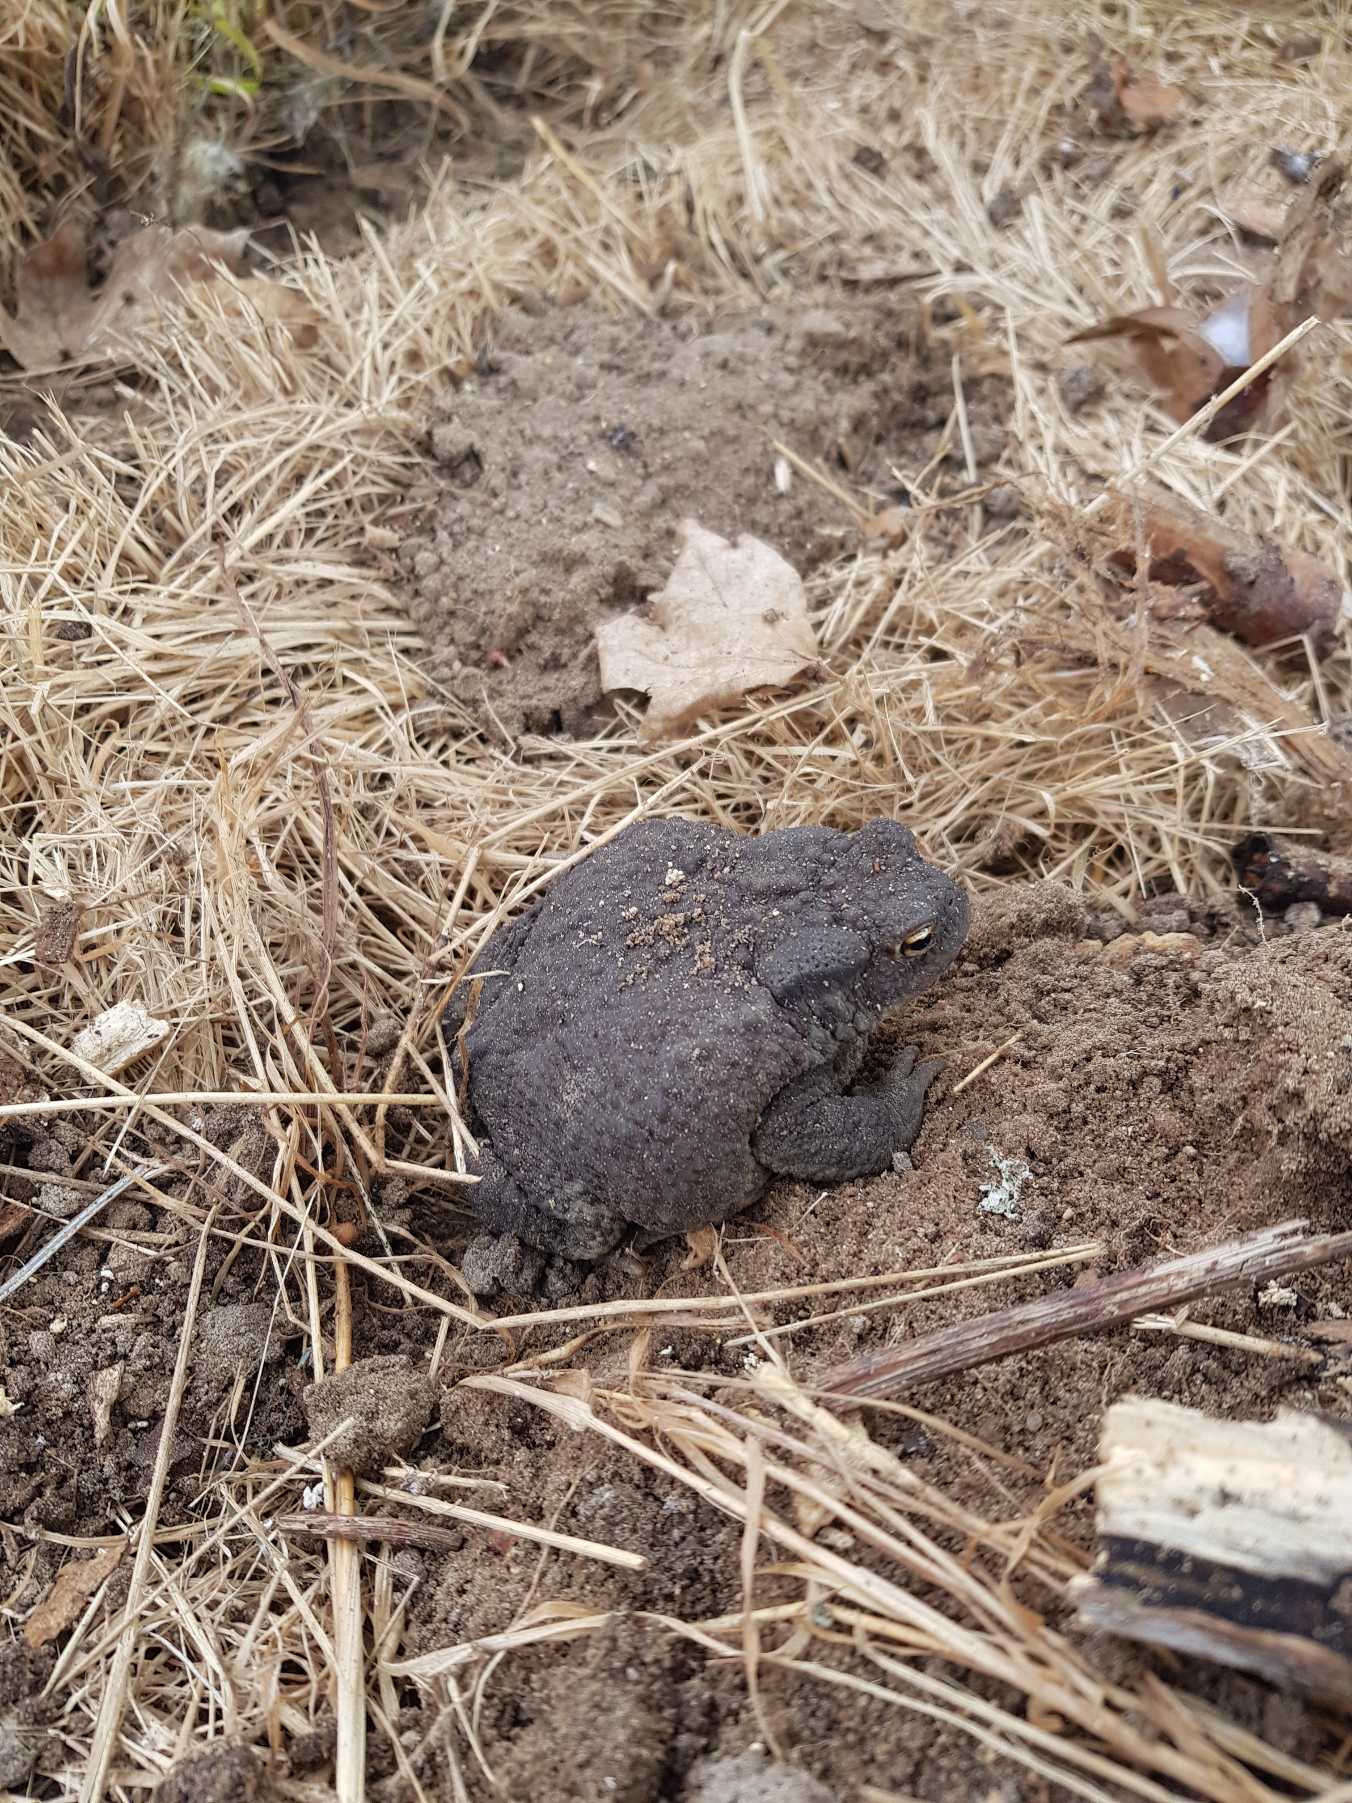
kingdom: Animalia
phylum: Chordata
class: Amphibia
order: Anura
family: Bufonidae
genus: Bufo
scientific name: Bufo bufo
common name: Skrubtudse
